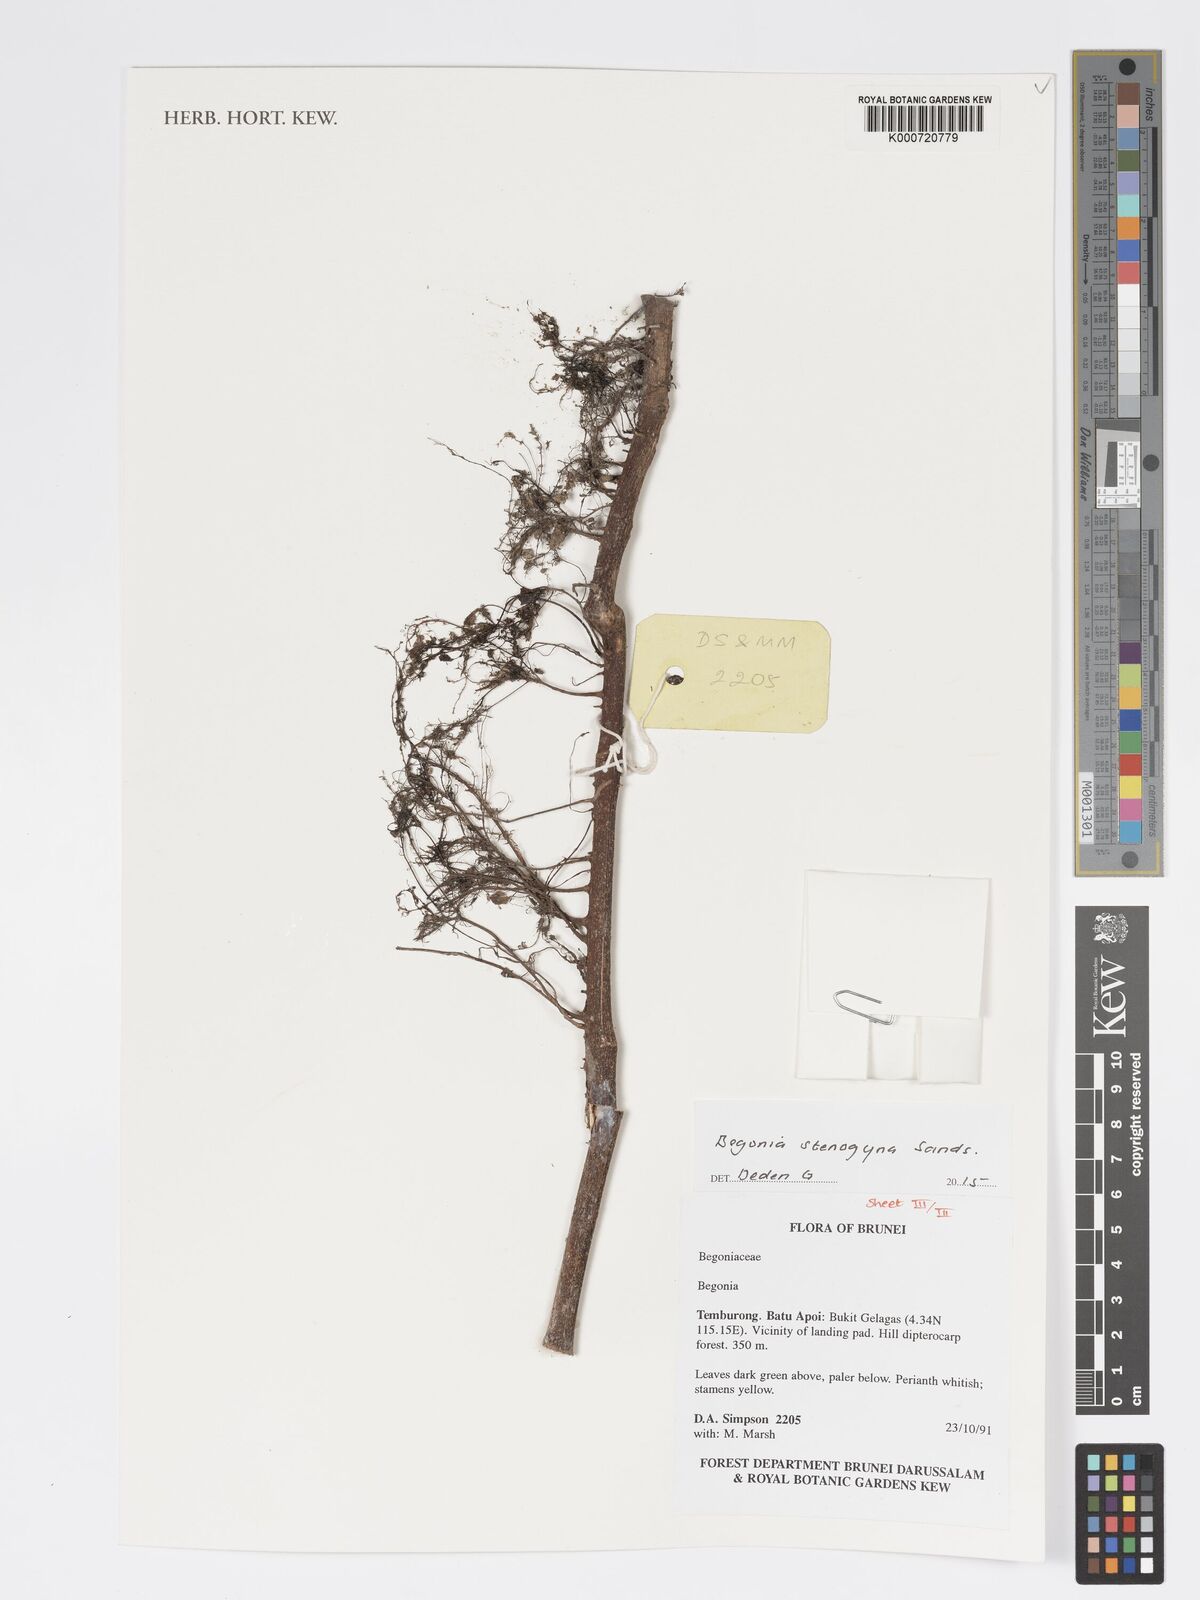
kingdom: Plantae
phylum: Tracheophyta
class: Magnoliopsida
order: Cucurbitales
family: Begoniaceae
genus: Begonia
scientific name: Begonia stenogyna
